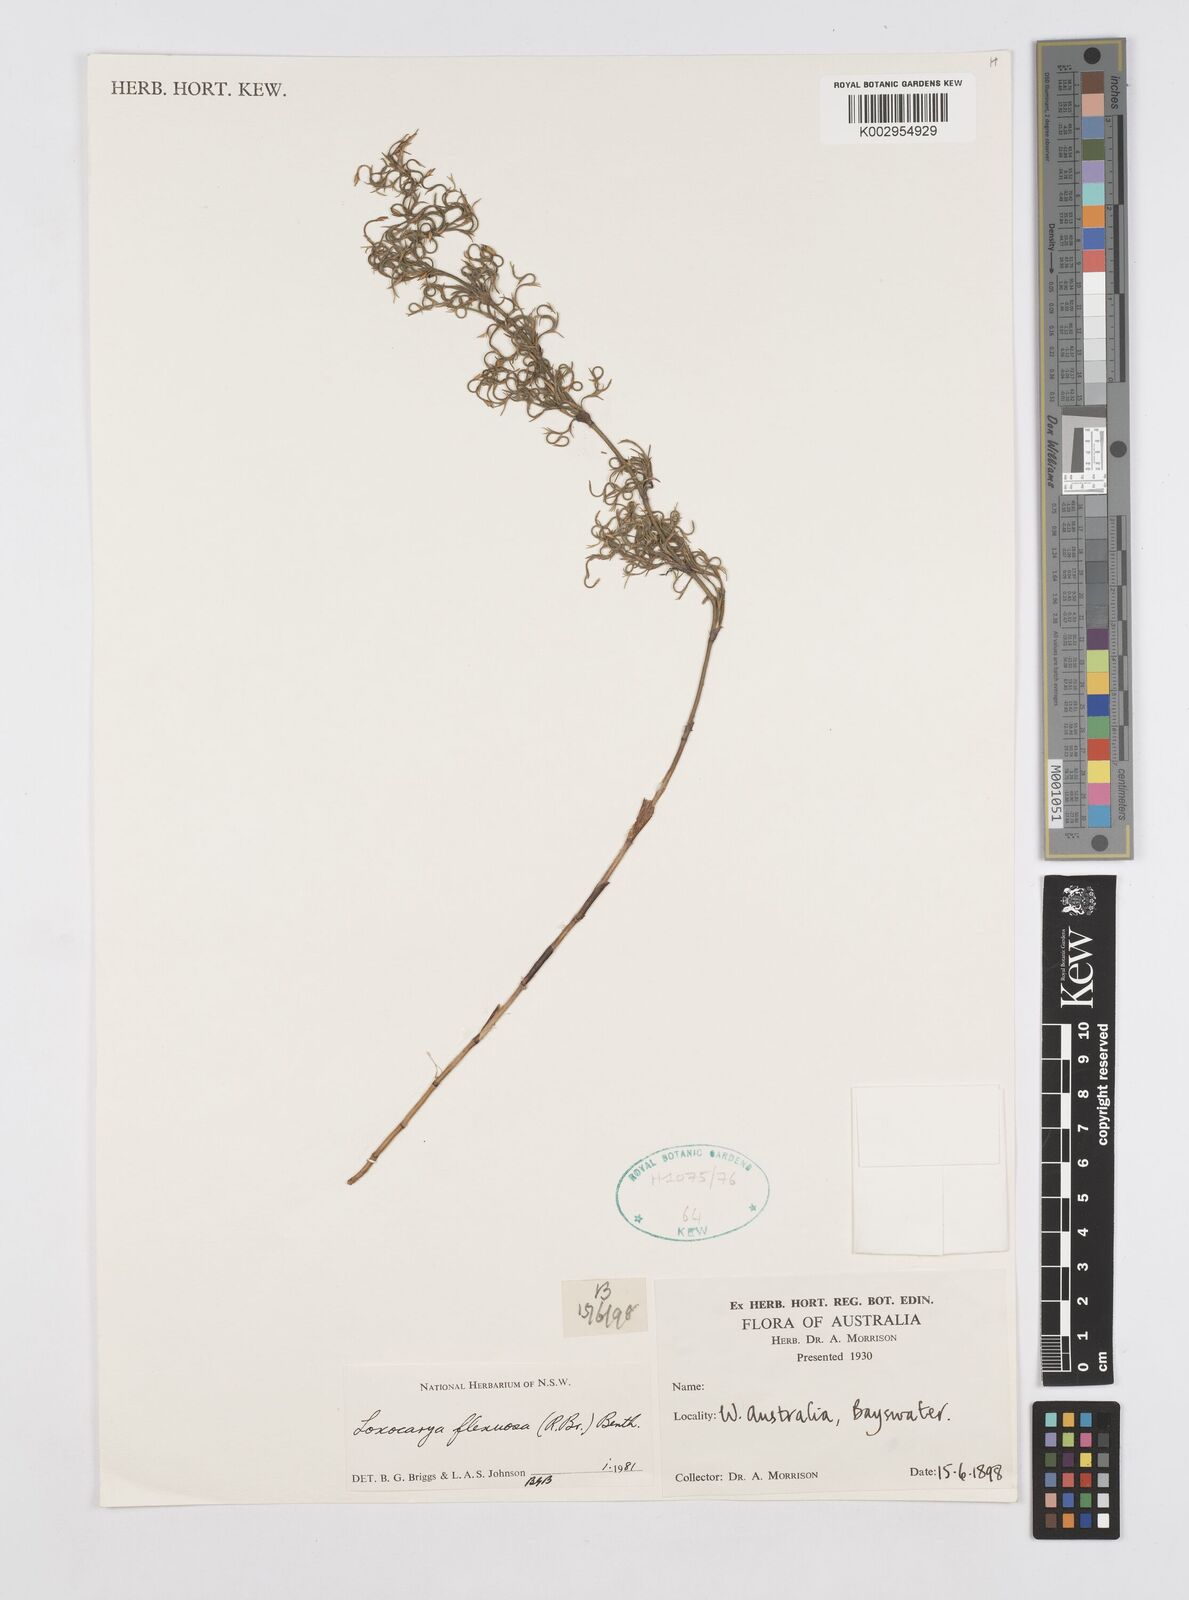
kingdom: Plantae
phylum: Tracheophyta
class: Liliopsida
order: Poales
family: Restionaceae
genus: Desmocladus
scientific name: Desmocladus flexuosus
